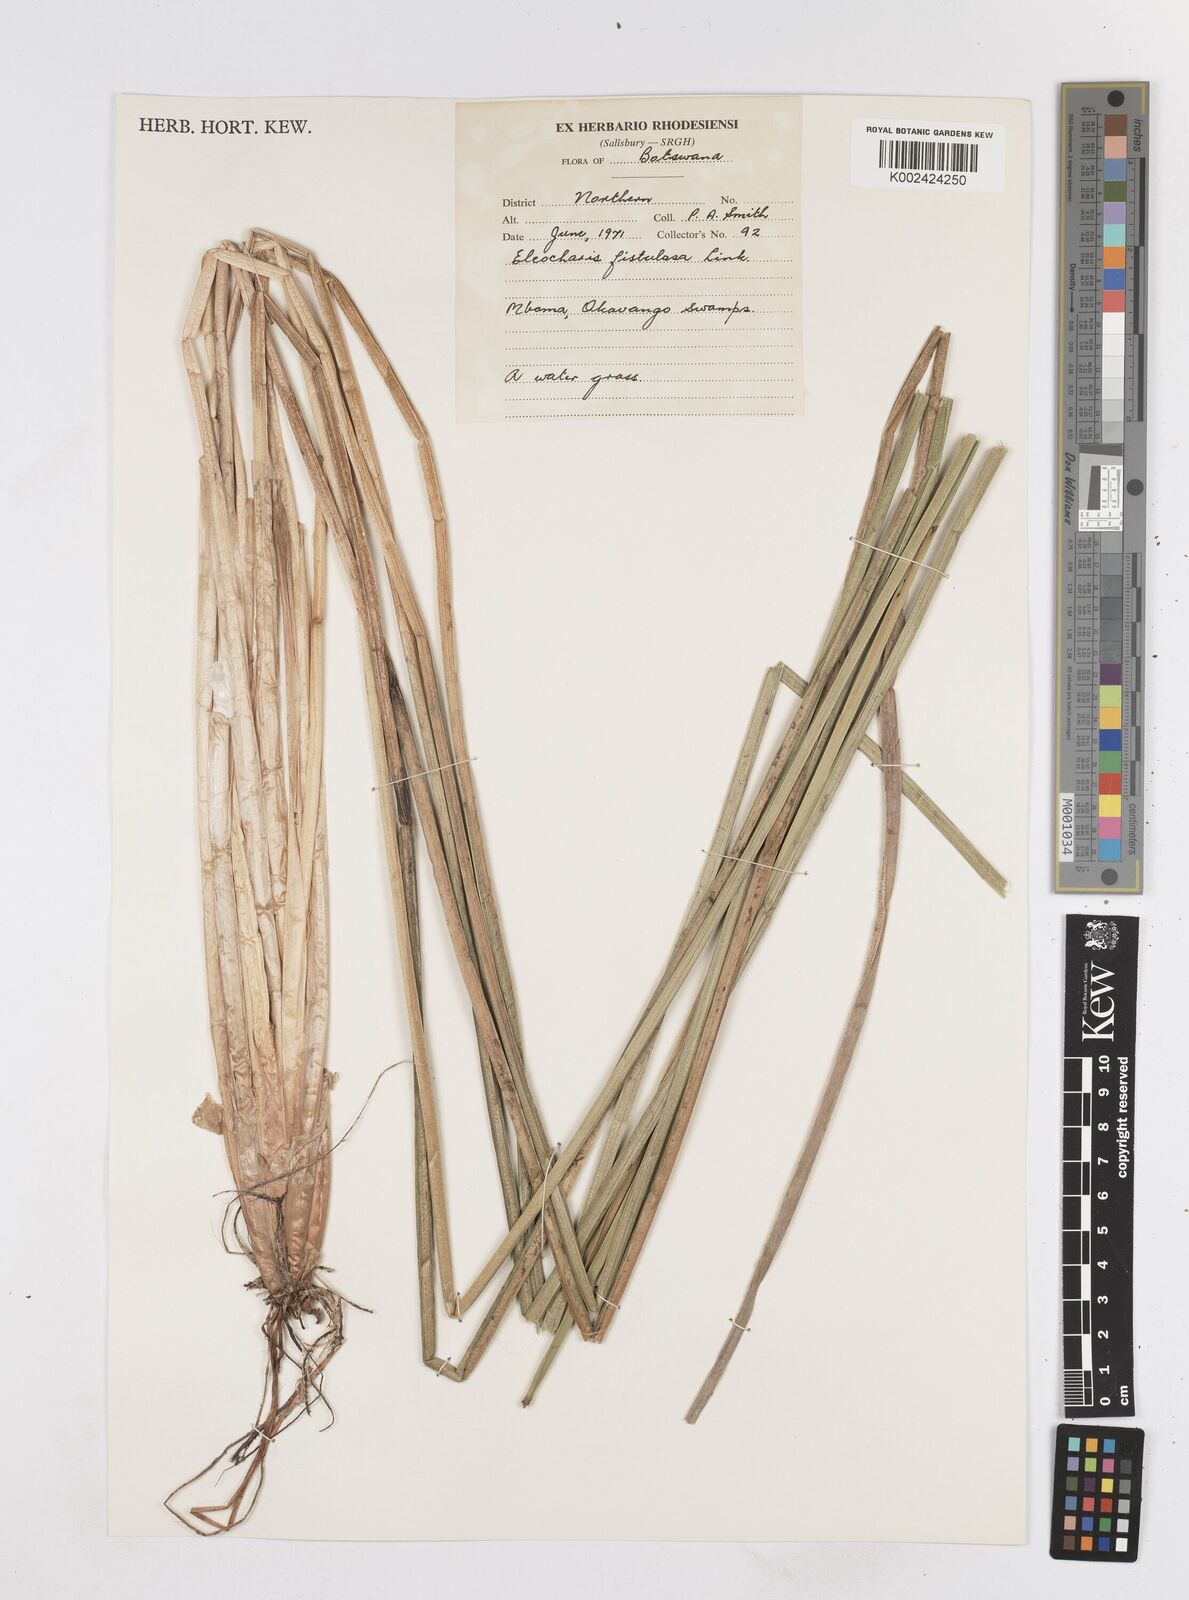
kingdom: Plantae
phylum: Tracheophyta
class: Liliopsida
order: Poales
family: Cyperaceae
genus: Eleocharis
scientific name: Eleocharis acutangula
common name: Acute spikerush
